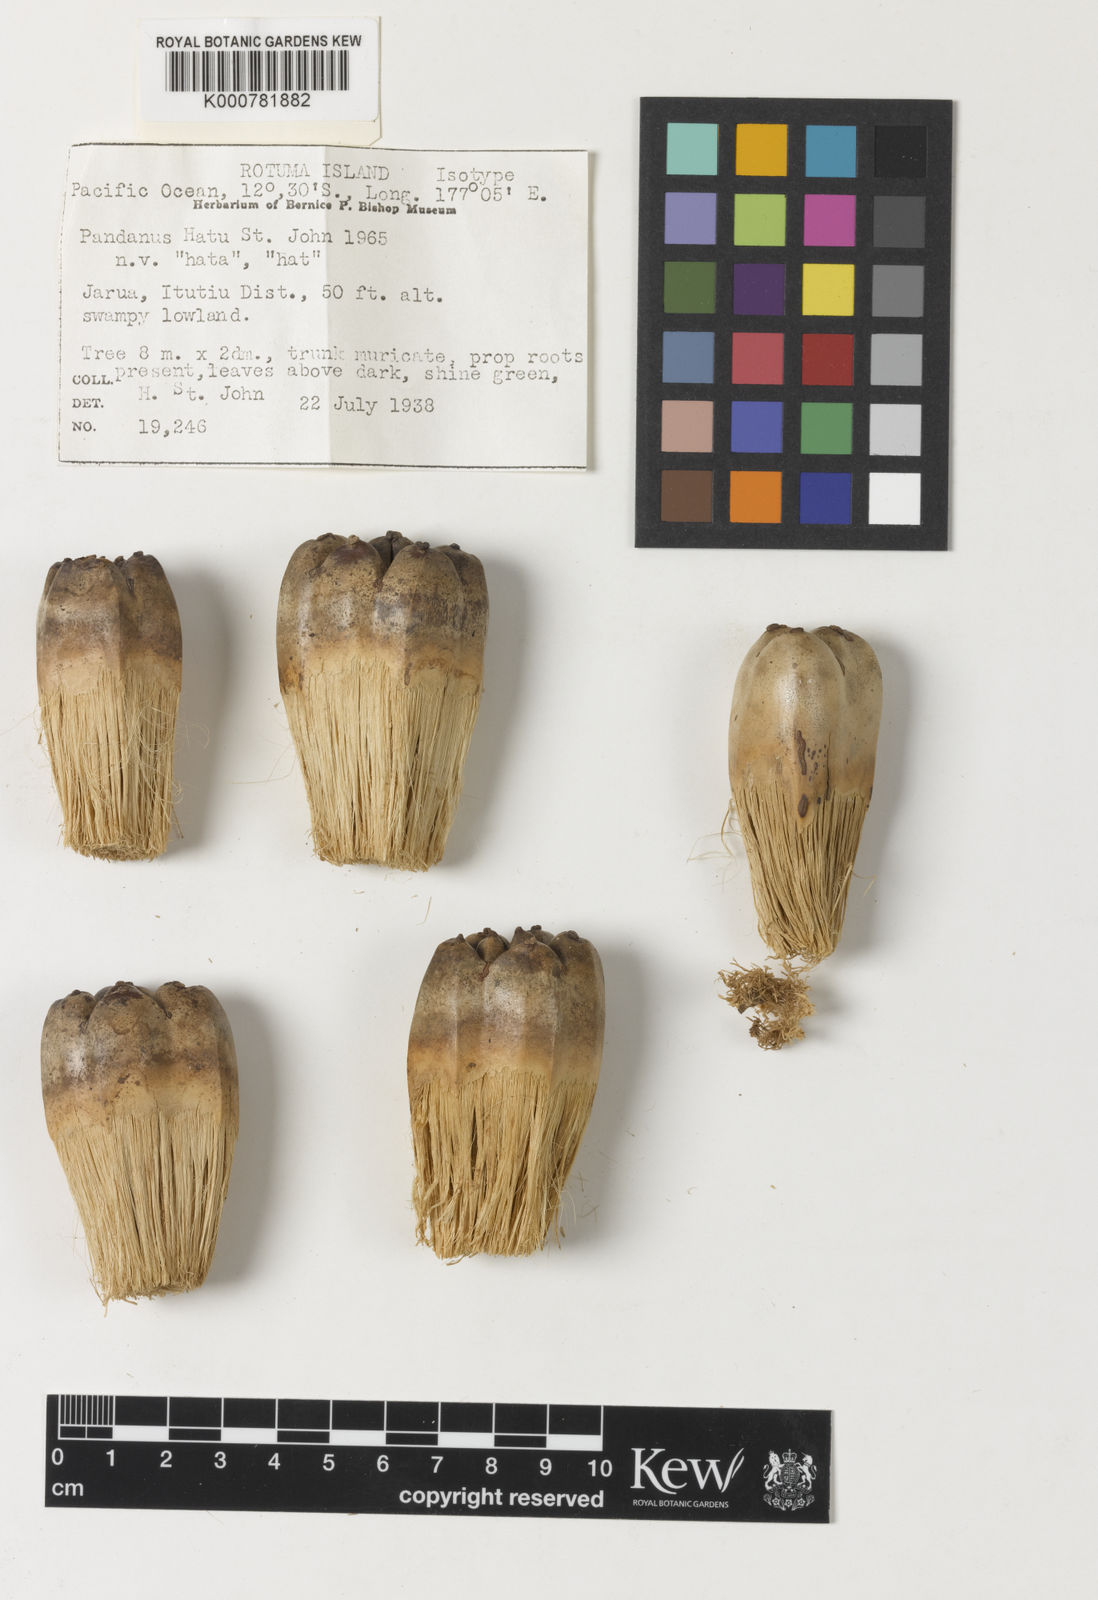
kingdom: Plantae
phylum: Tracheophyta
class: Liliopsida
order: Pandanales
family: Pandanaceae
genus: Pandanus
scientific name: Pandanus
